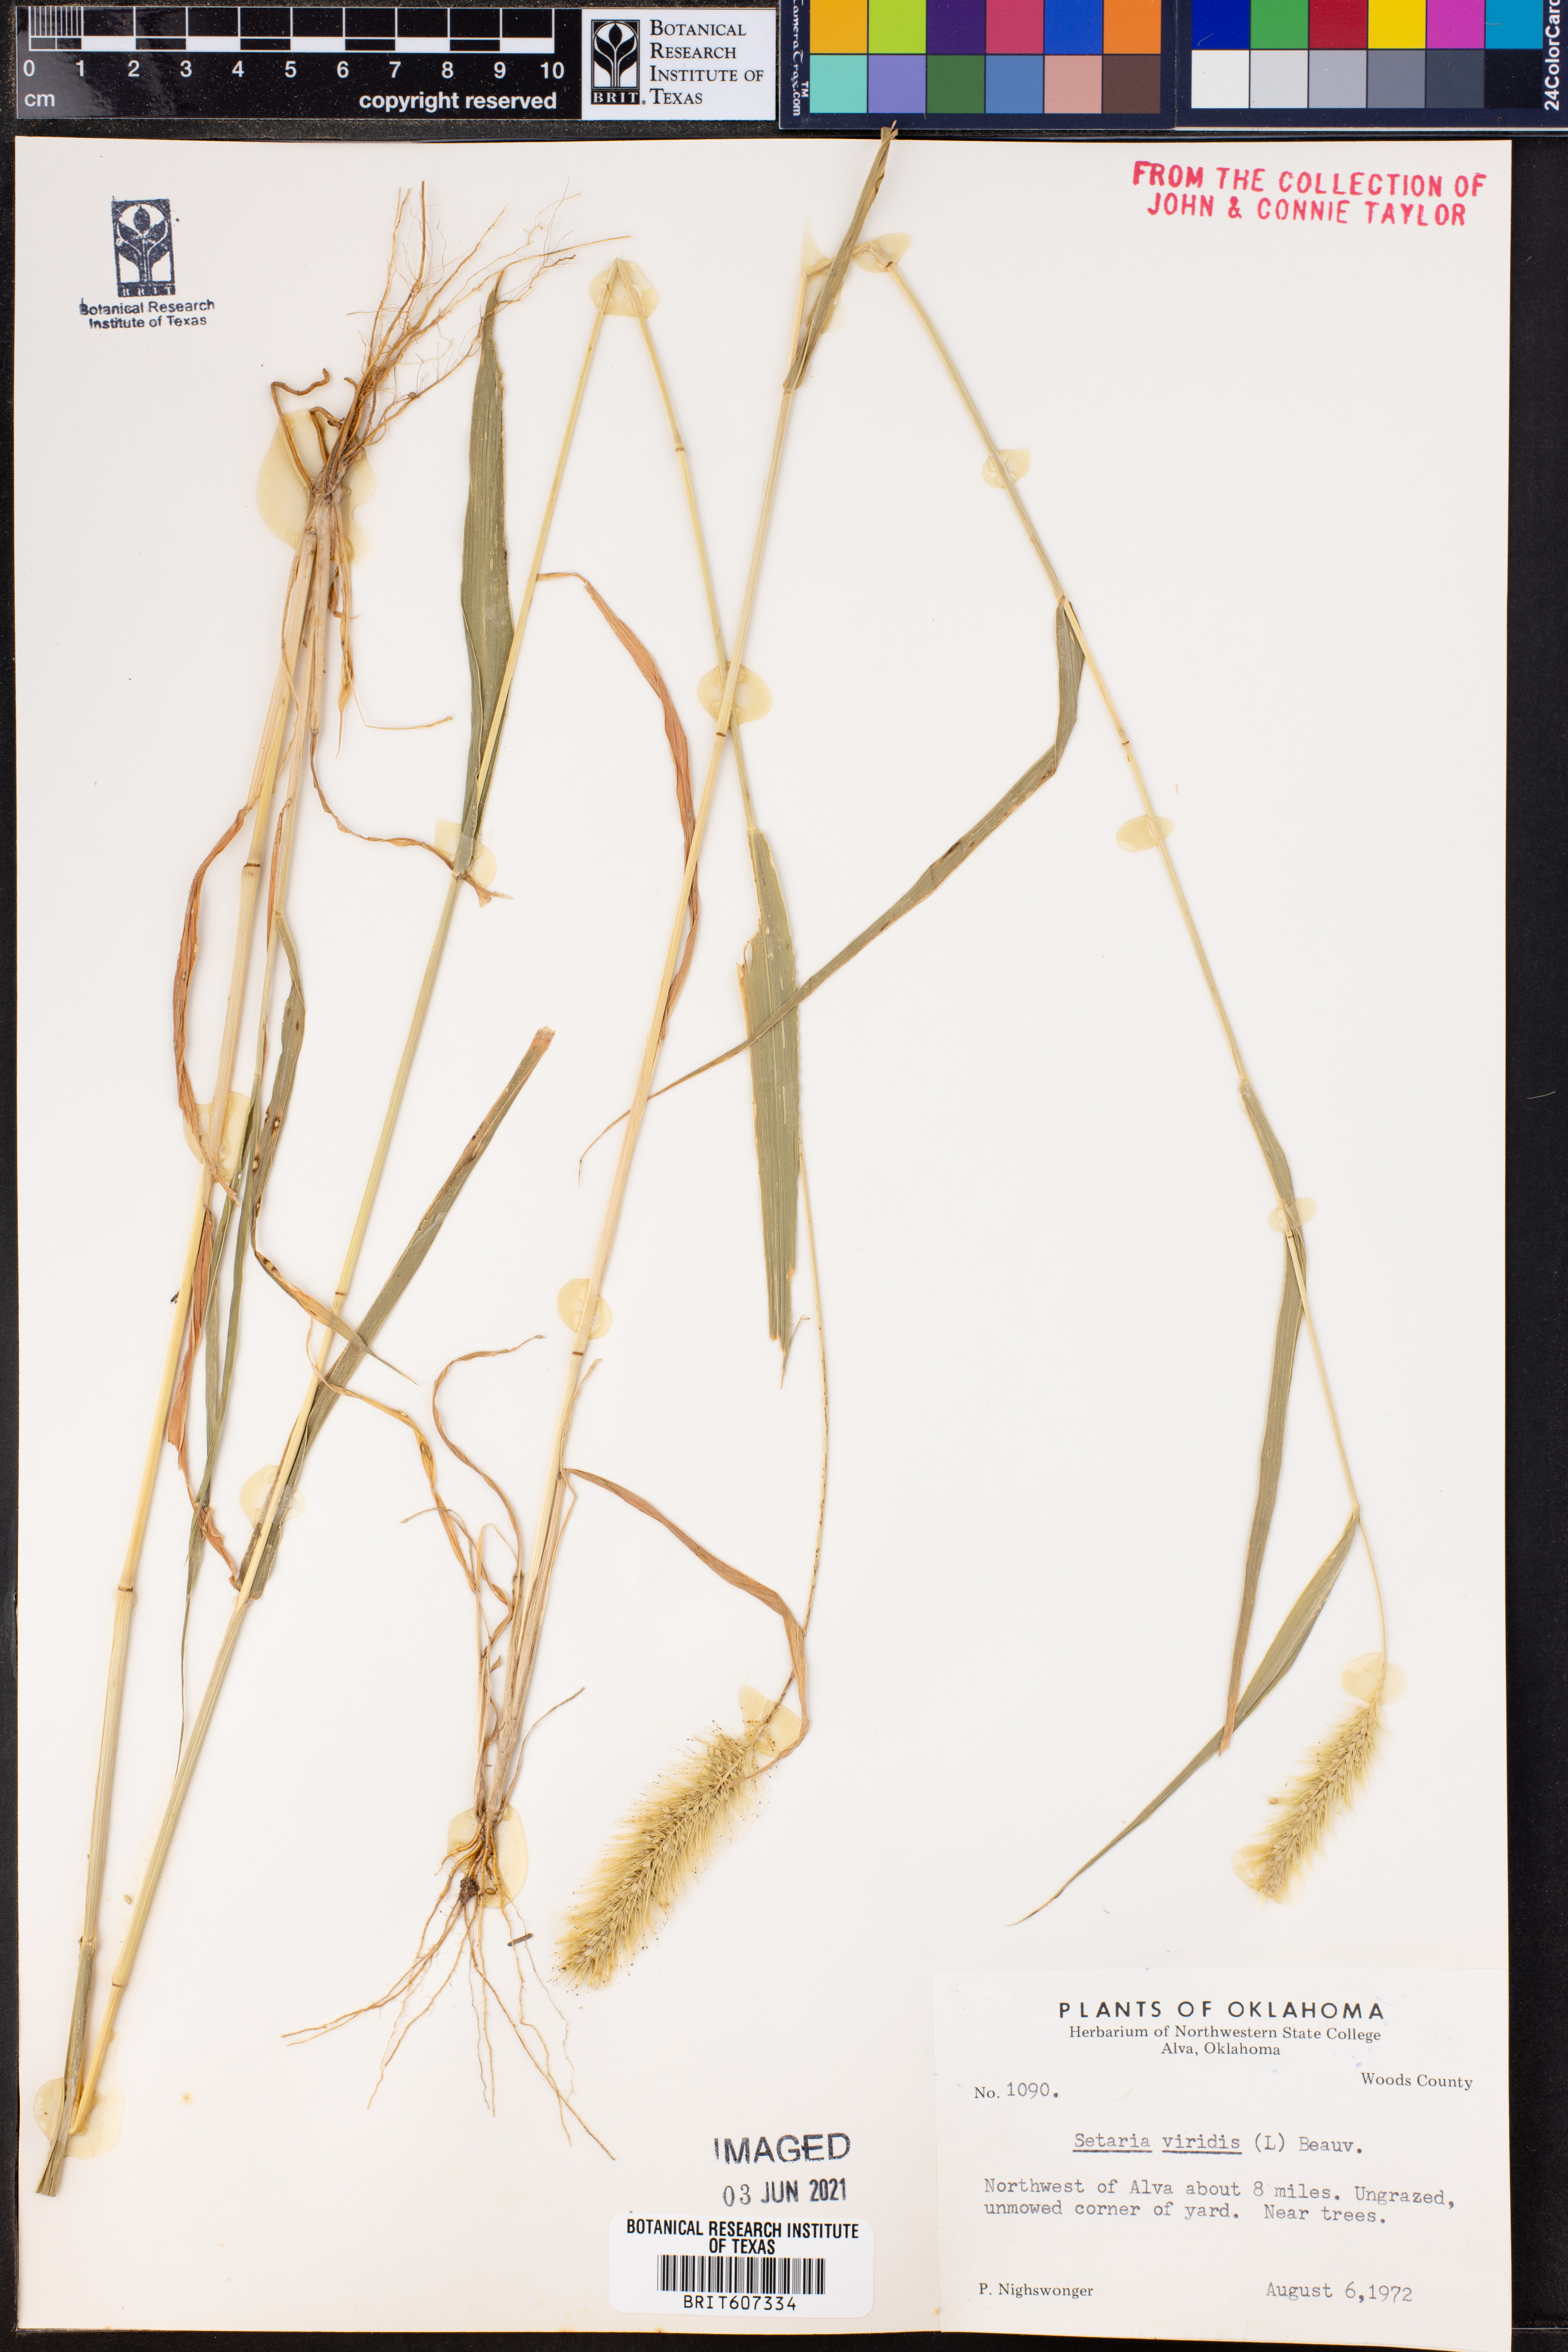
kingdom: Plantae
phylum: Tracheophyta
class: Liliopsida
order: Poales
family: Poaceae
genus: Setaria
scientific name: Setaria viridis
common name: Green bristlegrass
